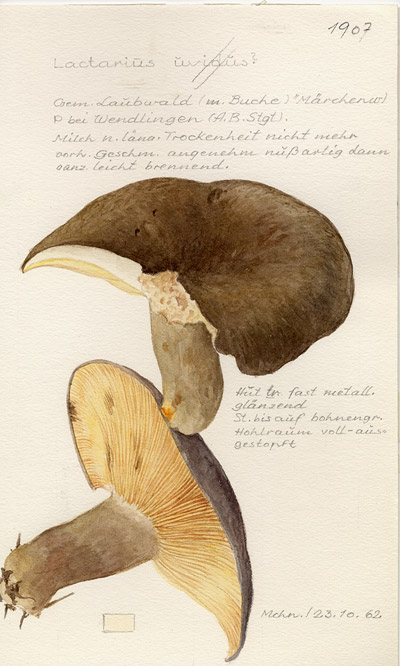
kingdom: Fungi
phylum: Basidiomycota
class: Agaricomycetes
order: Russulales
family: Russulaceae
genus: Lactarius
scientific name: Lactarius uvidus
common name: Shiner milkcap
